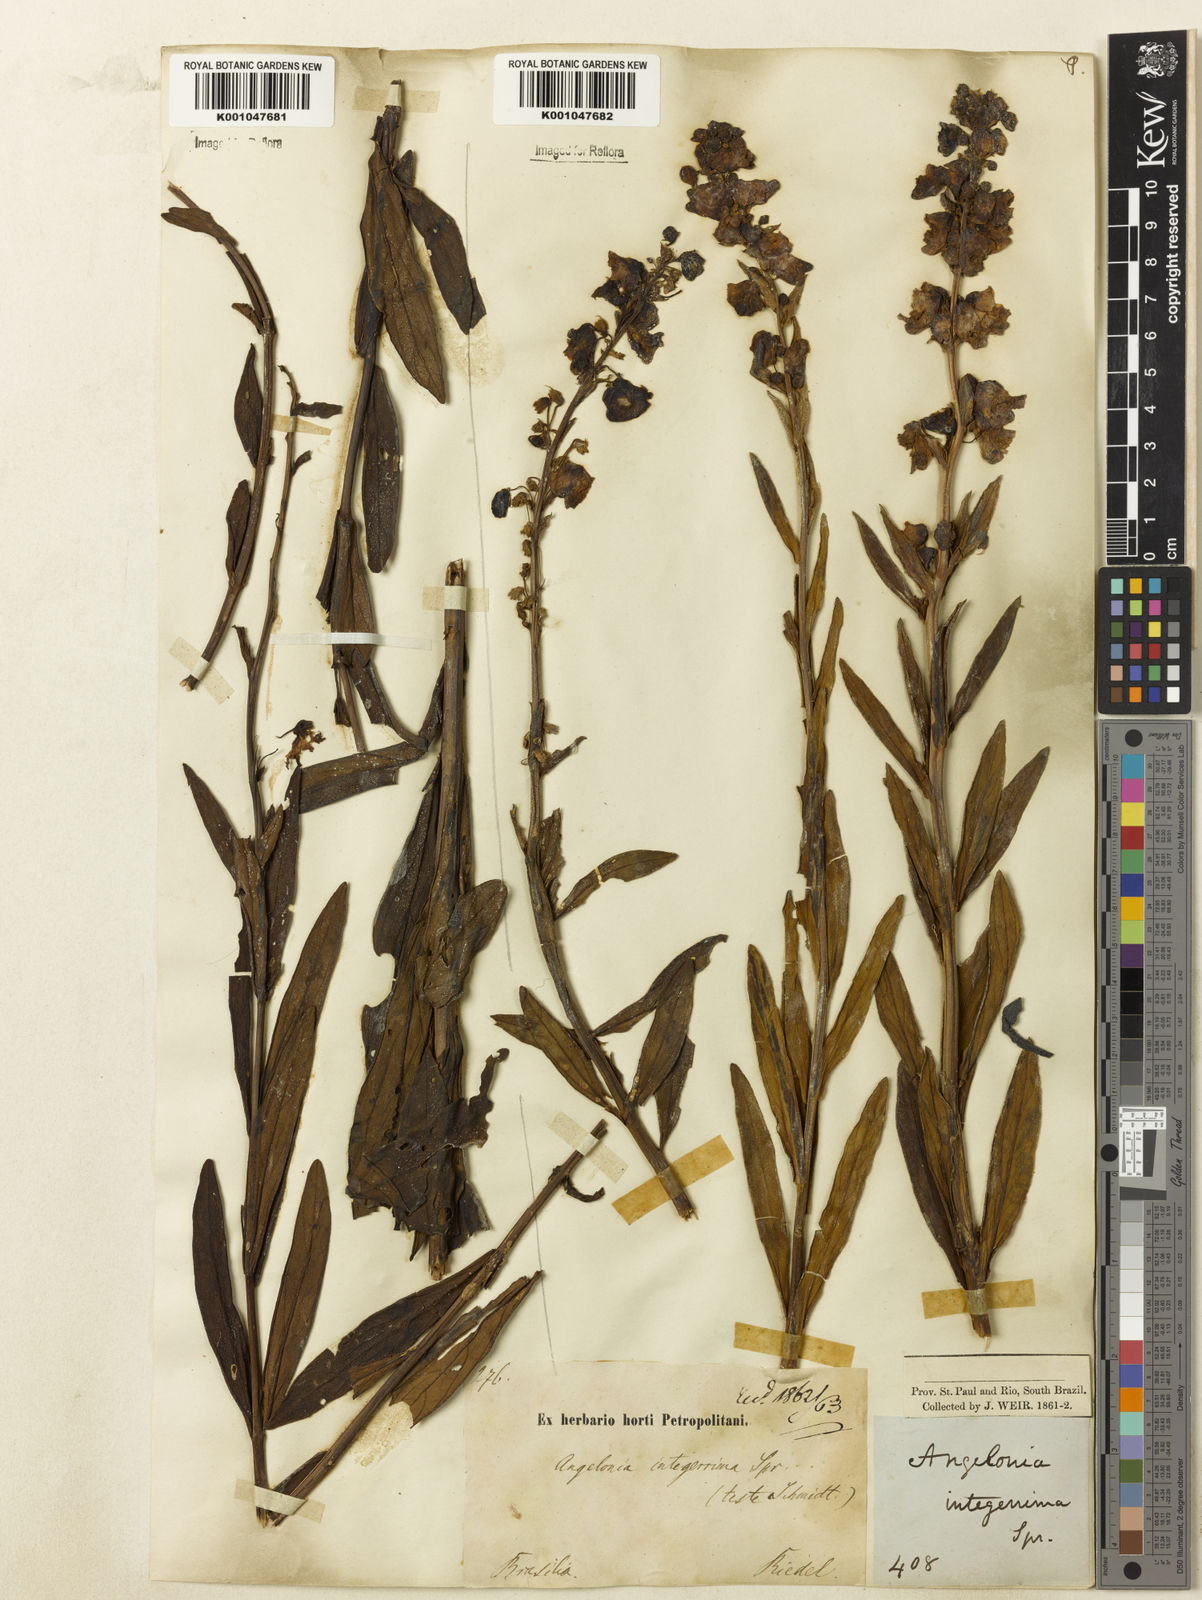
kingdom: Plantae
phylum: Tracheophyta
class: Magnoliopsida
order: Lamiales
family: Plantaginaceae
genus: Angelonia
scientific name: Angelonia integerrima
